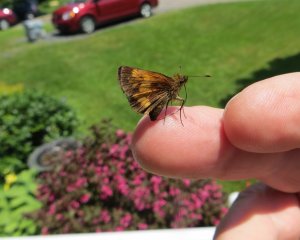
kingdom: Animalia
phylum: Arthropoda
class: Insecta
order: Lepidoptera
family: Hesperiidae
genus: Lon
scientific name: Lon hobomok
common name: Hobomok Skipper
